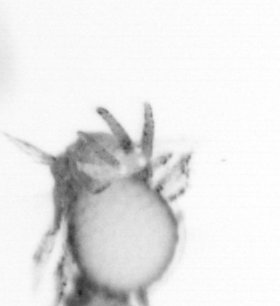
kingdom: Animalia
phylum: Annelida
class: Polychaeta
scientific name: Polychaeta
